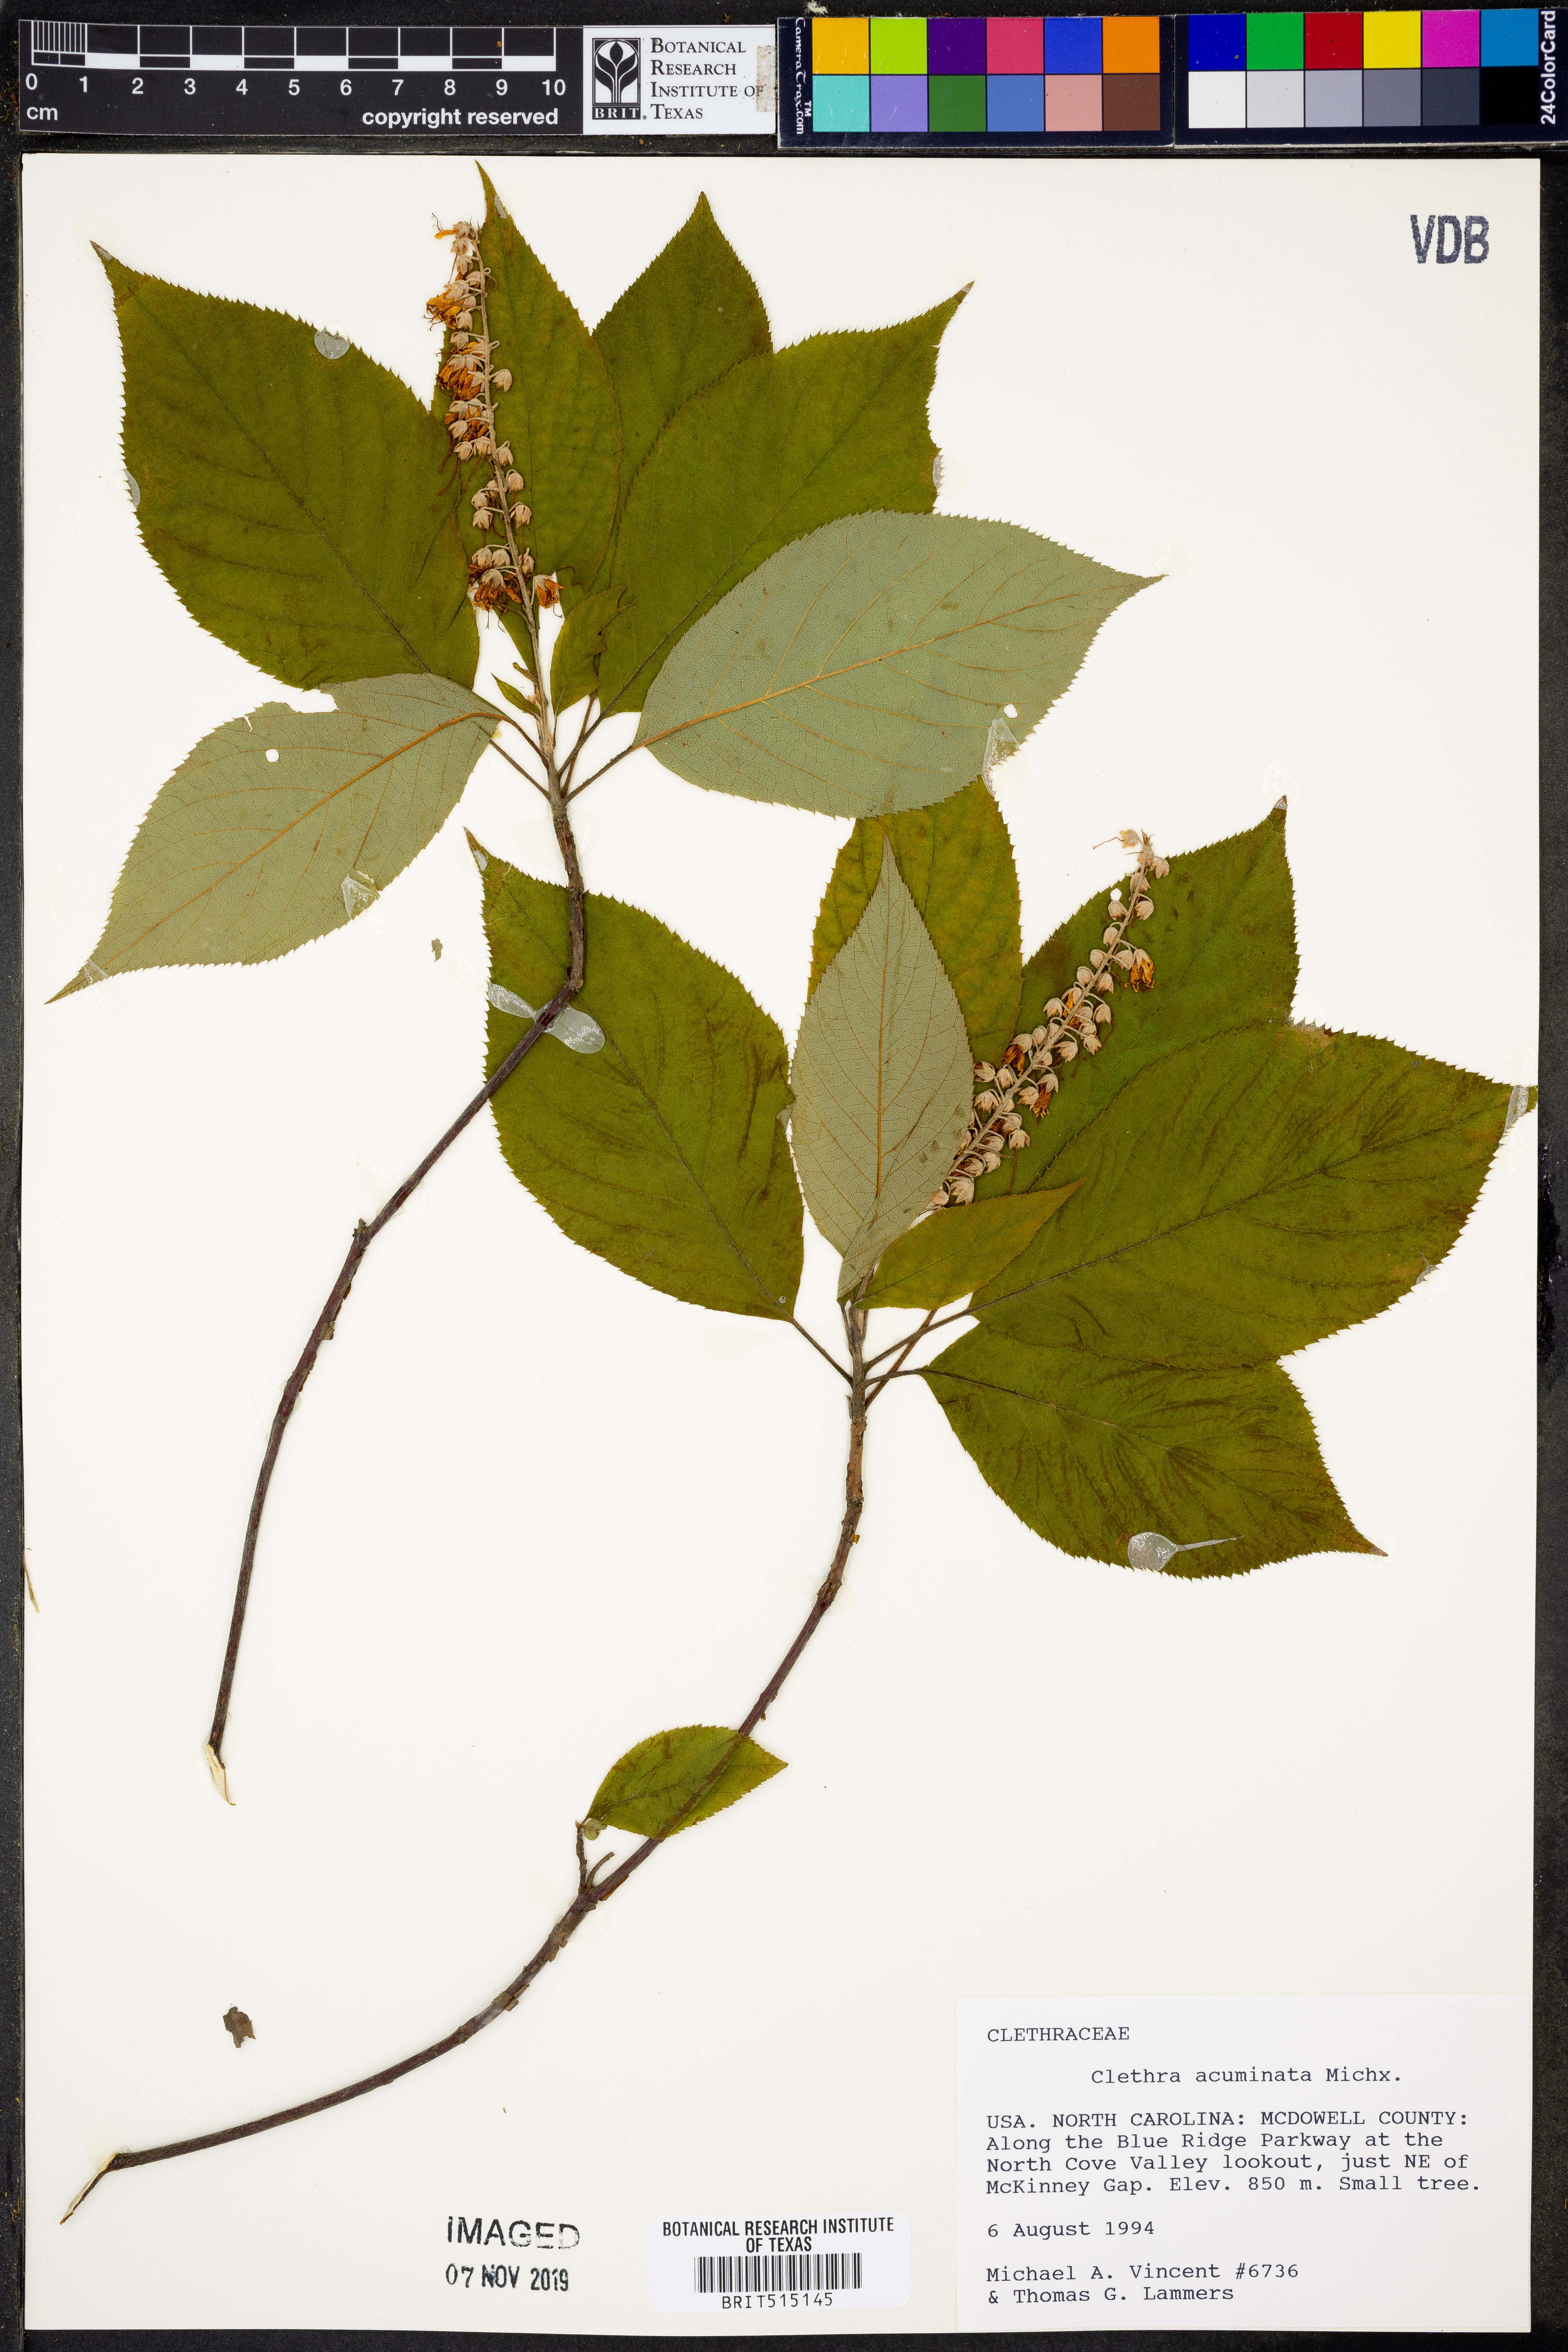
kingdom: Plantae
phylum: Tracheophyta
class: Magnoliopsida
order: Ericales
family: Clethraceae
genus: Clethra
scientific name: Clethra acuminata
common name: Mountain sweet pepperbush
